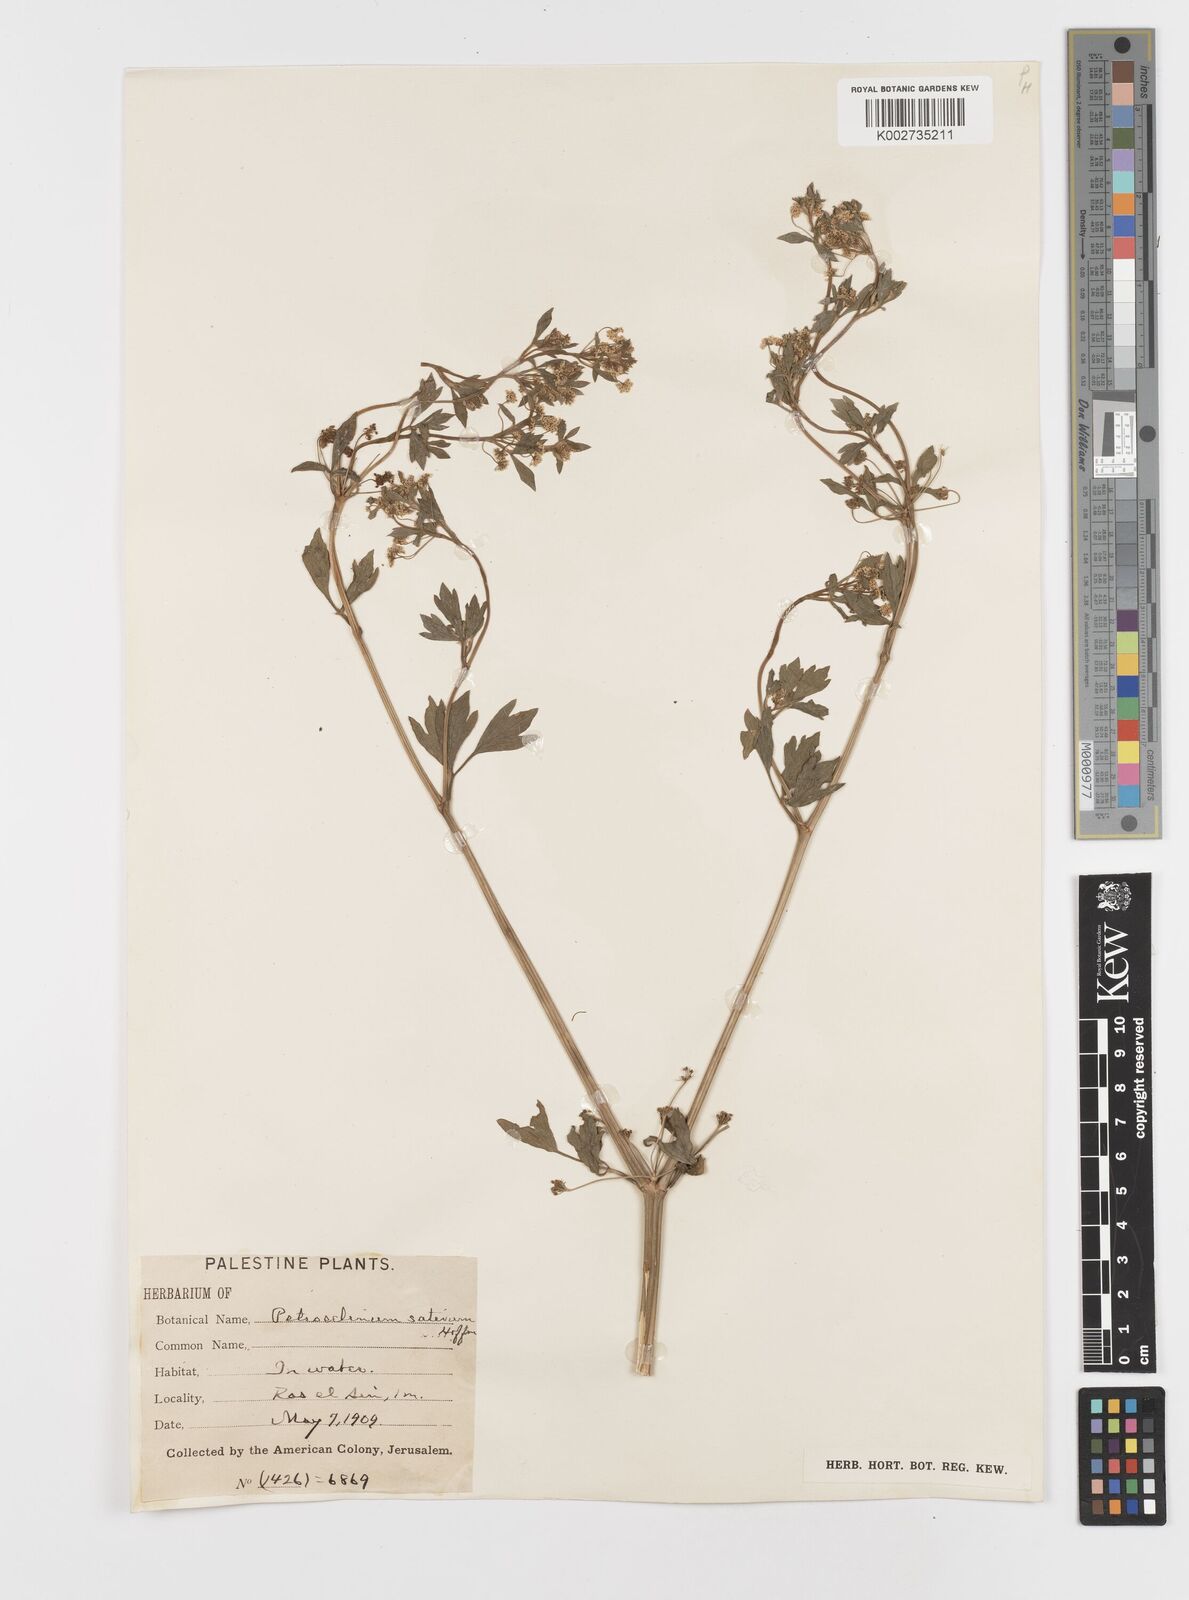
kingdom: Plantae
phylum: Tracheophyta
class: Magnoliopsida
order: Apiales
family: Apiaceae
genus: Petroselinum
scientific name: Petroselinum crispum
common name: Parsley
